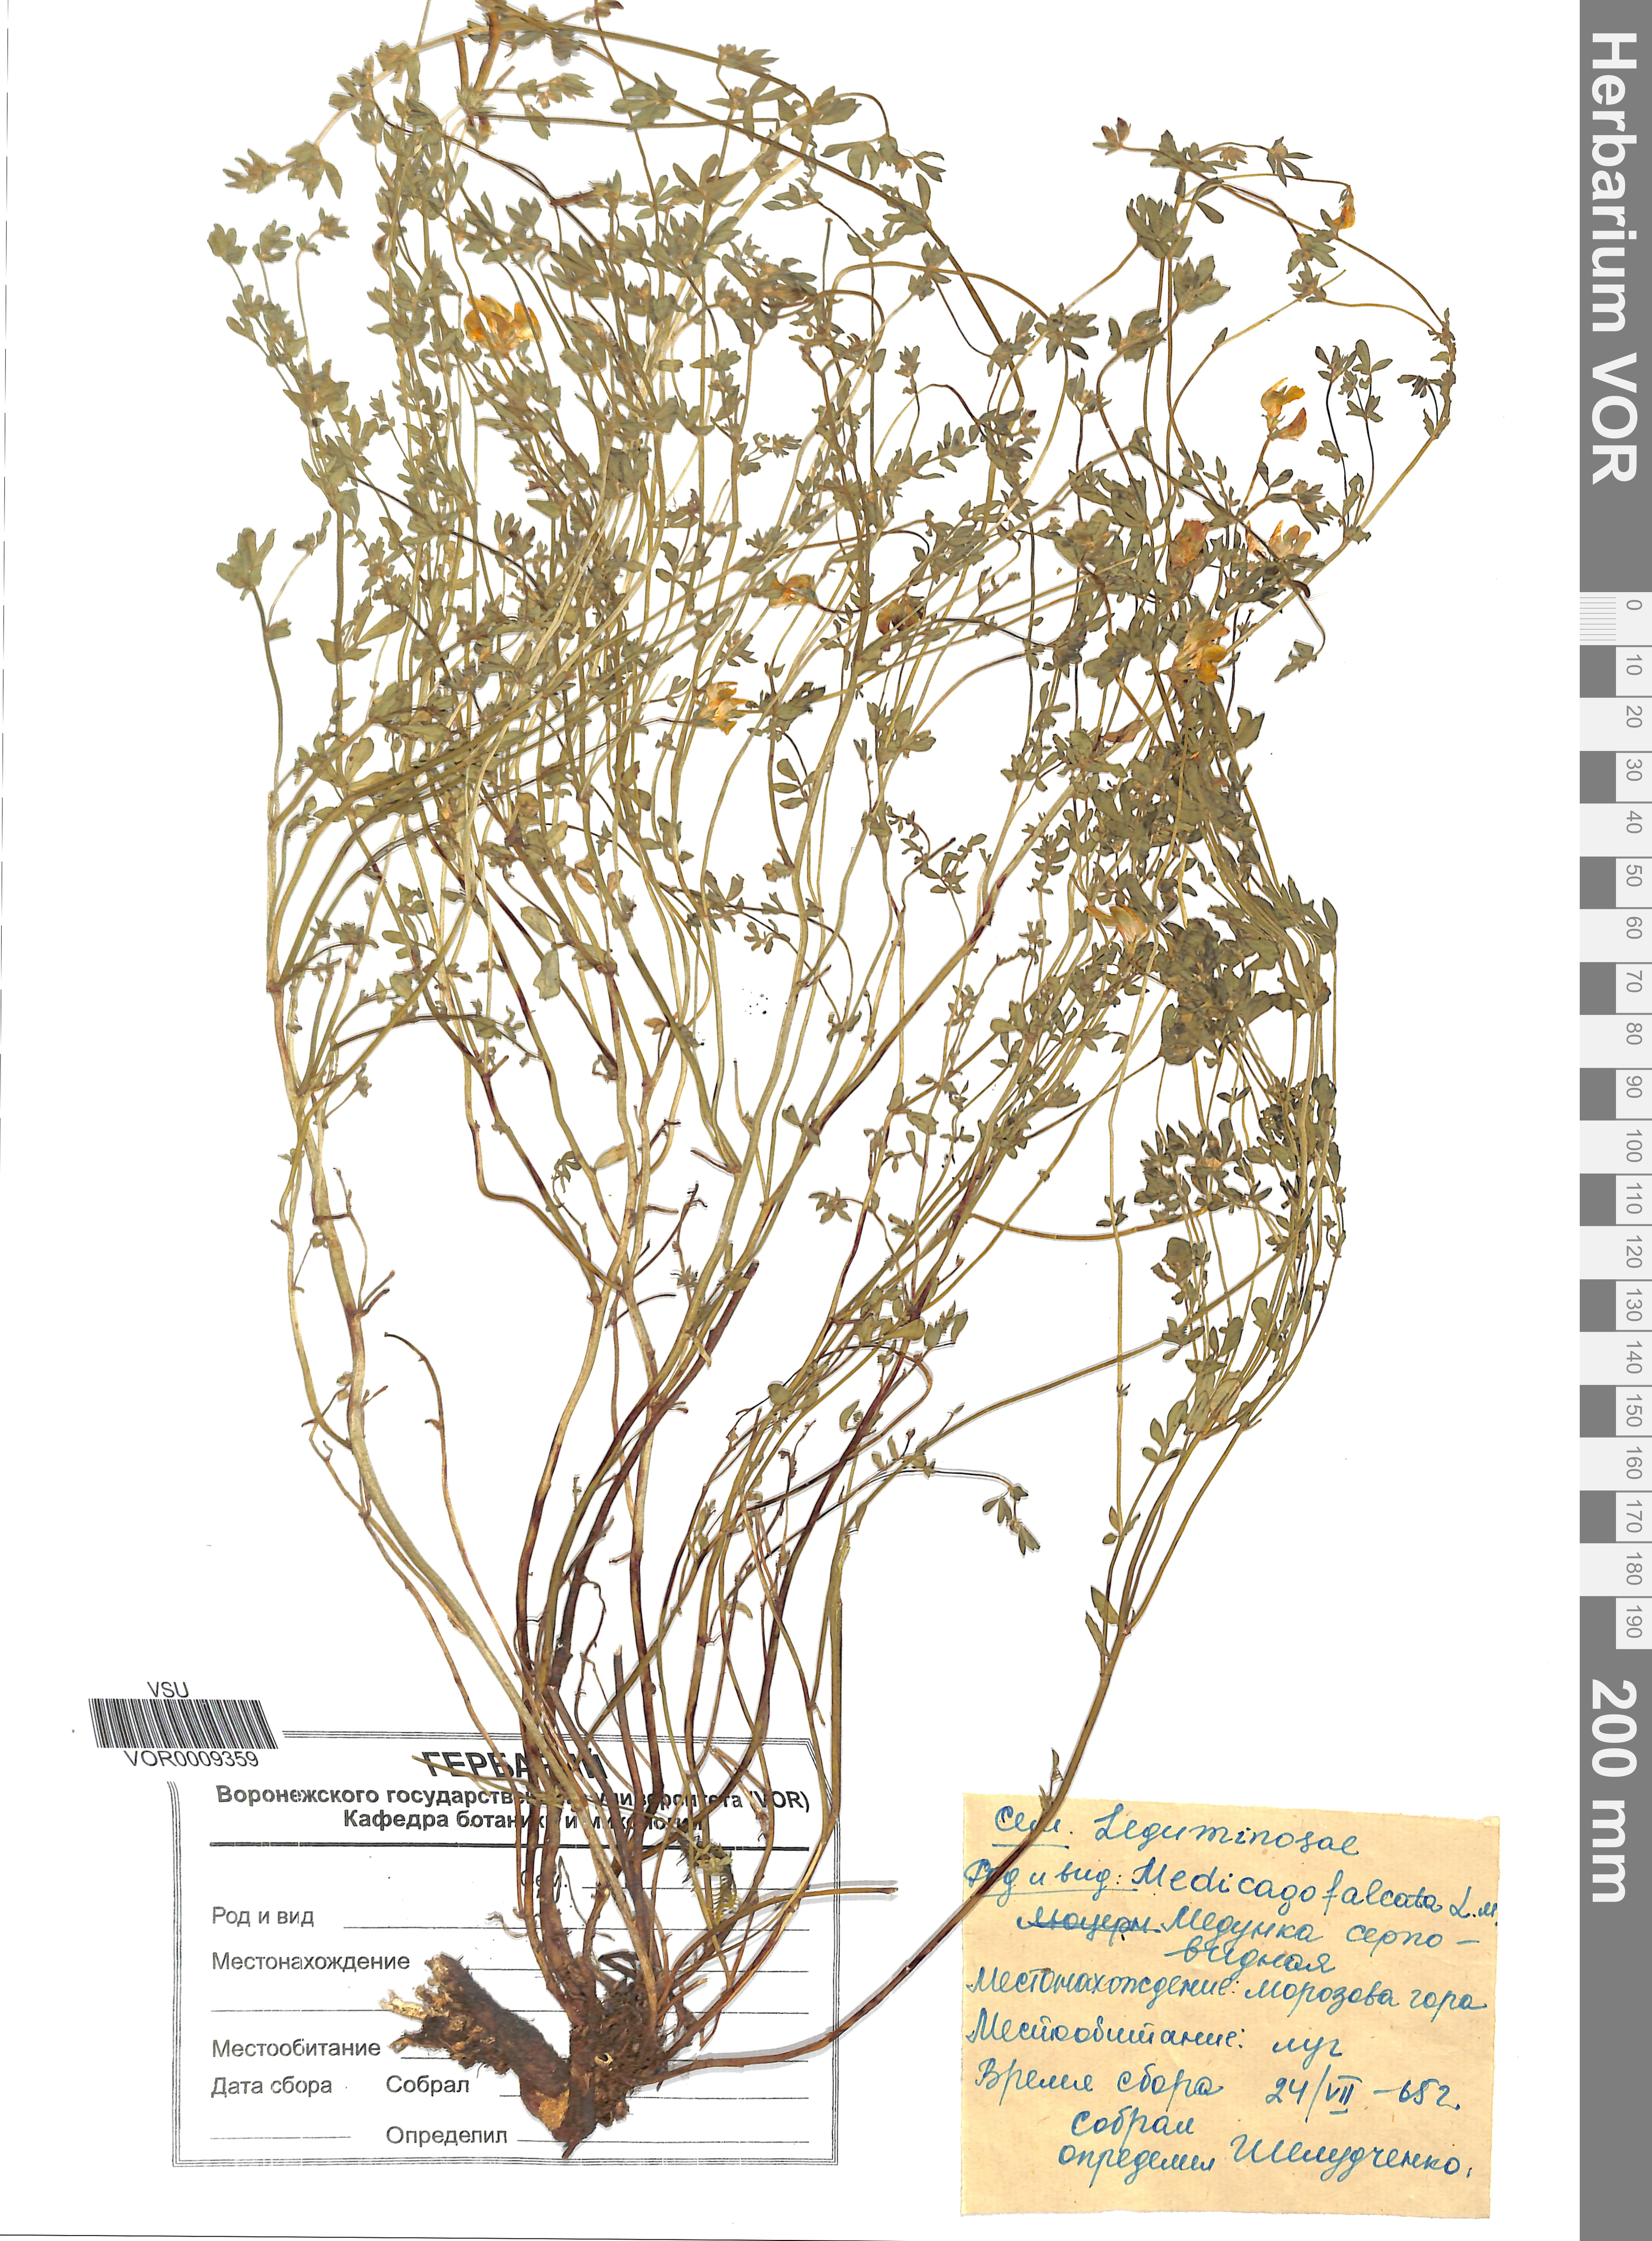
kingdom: Plantae
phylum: Tracheophyta
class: Magnoliopsida
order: Fabales
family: Fabaceae
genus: Medicago
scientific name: Medicago falcata
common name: Sickle medick
